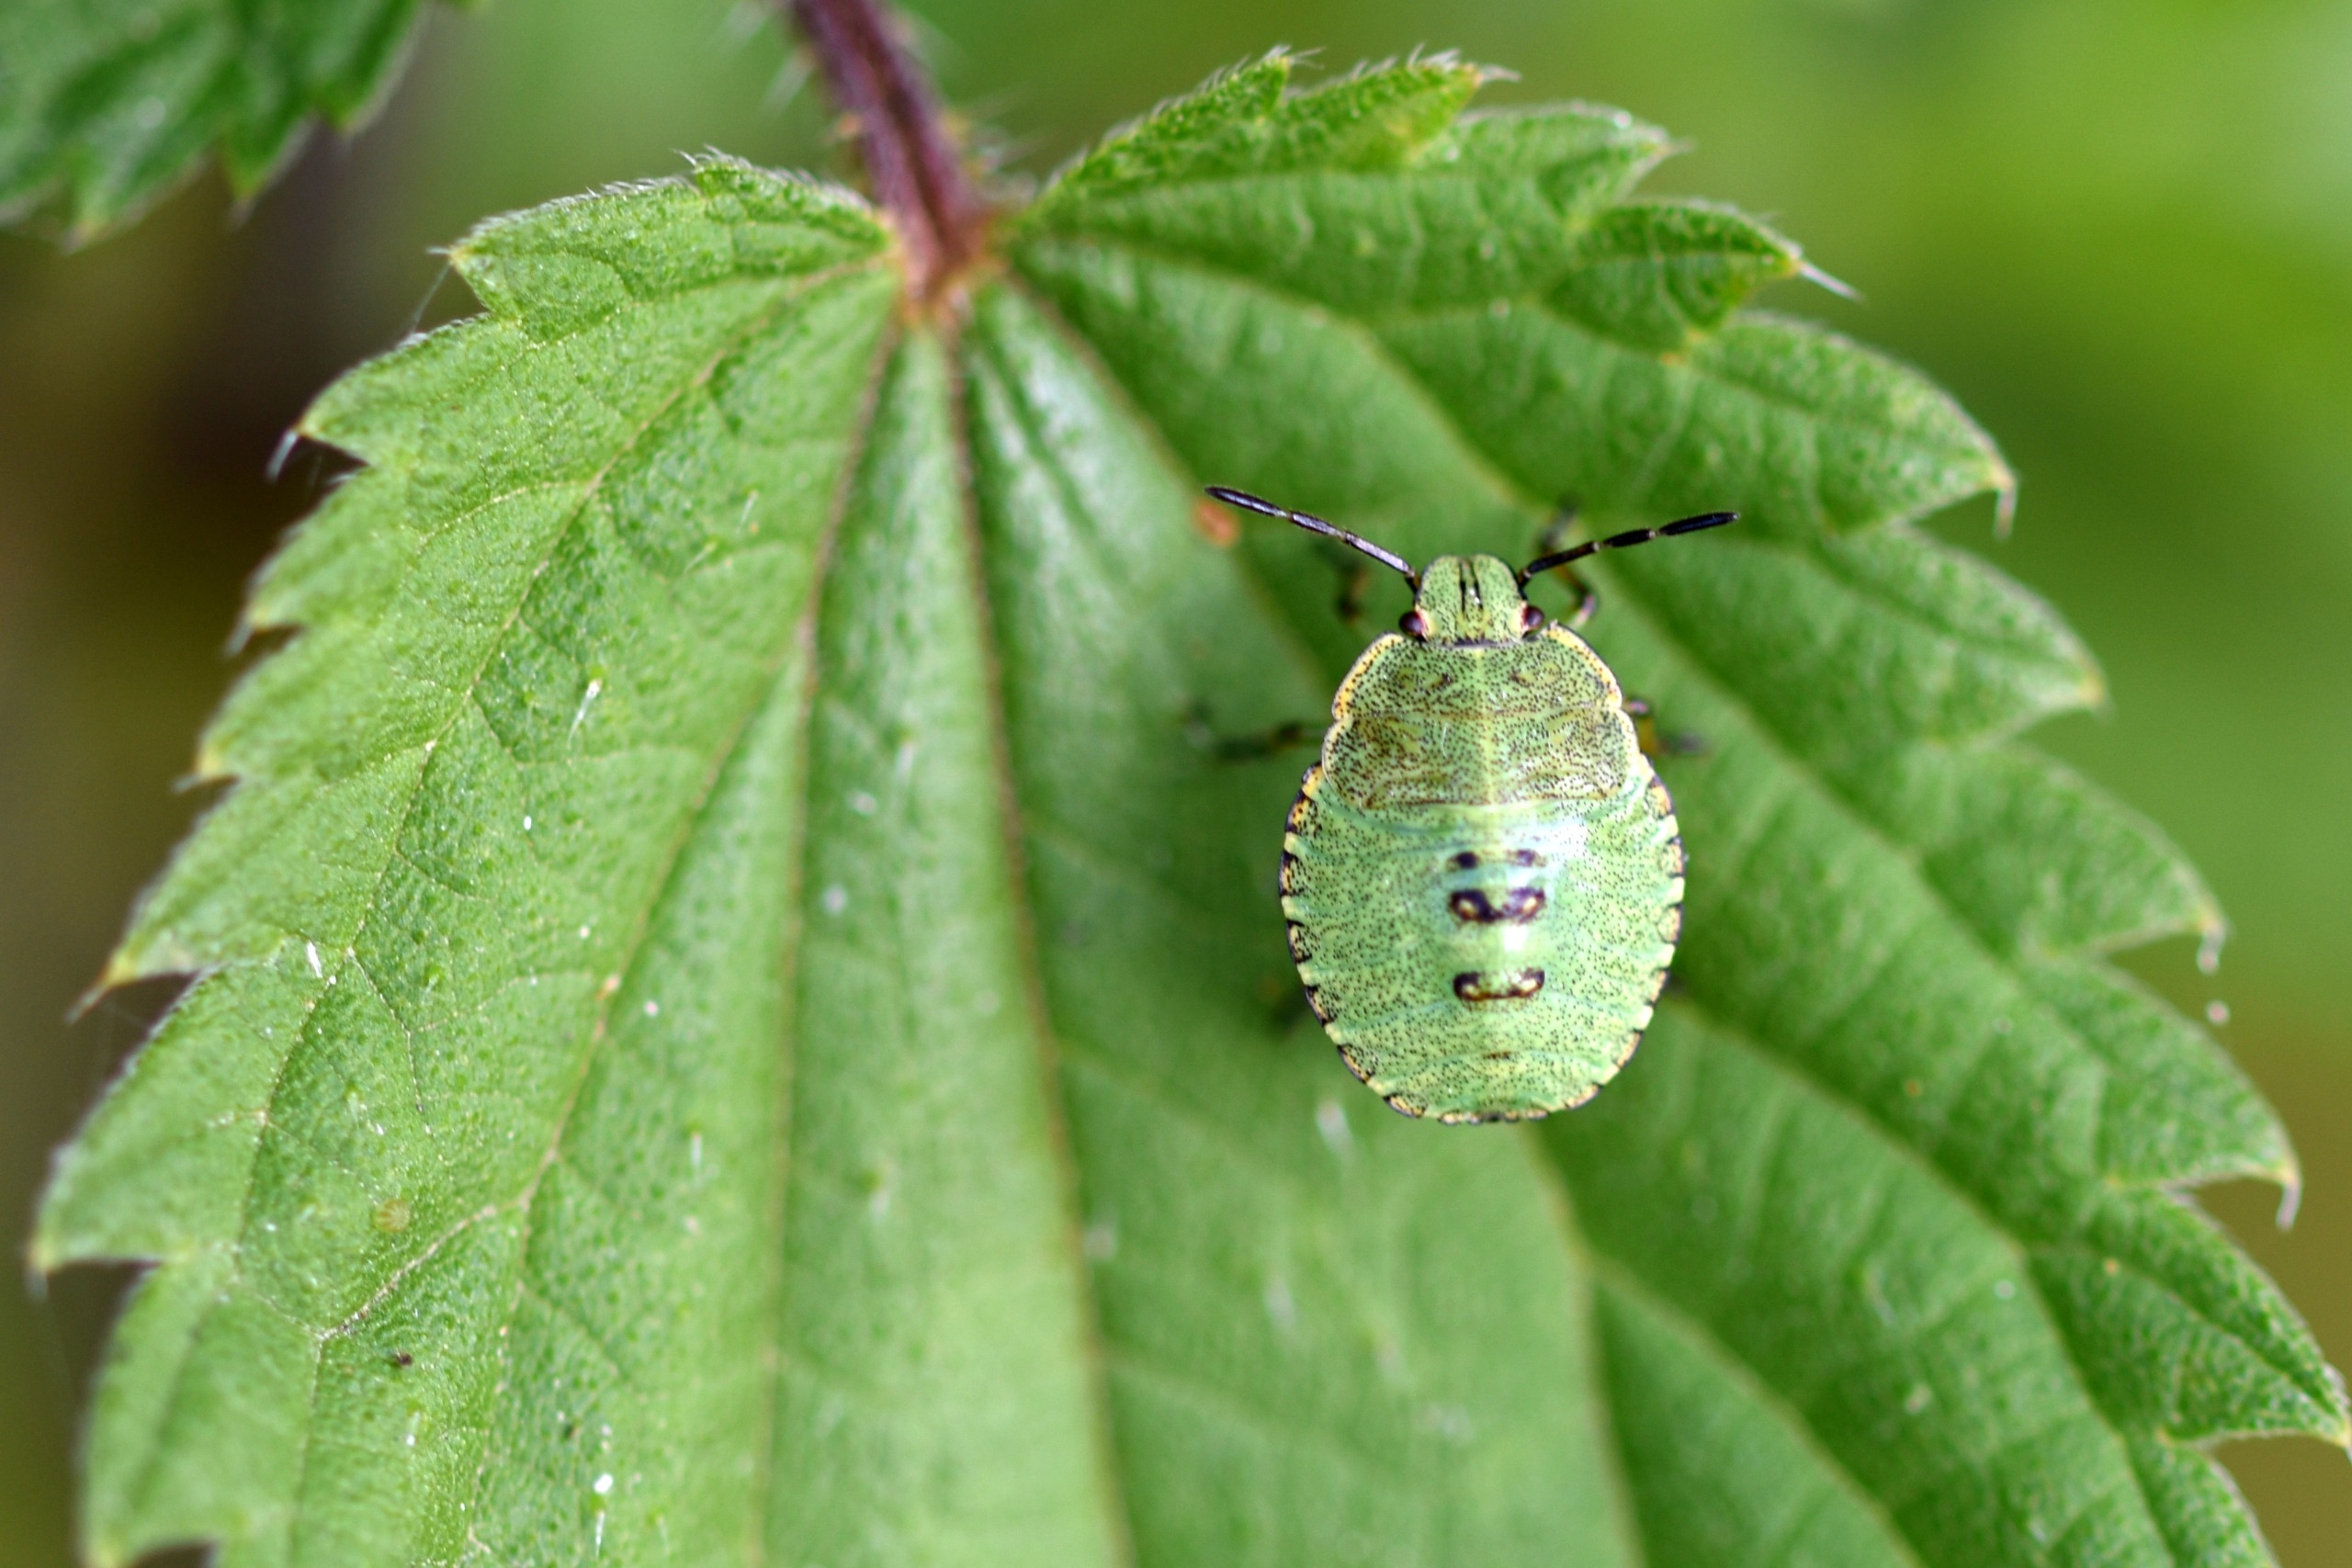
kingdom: Animalia
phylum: Arthropoda
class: Insecta
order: Hemiptera
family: Pentatomidae
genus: Palomena
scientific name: Palomena prasina
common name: Grøn bredtæge
